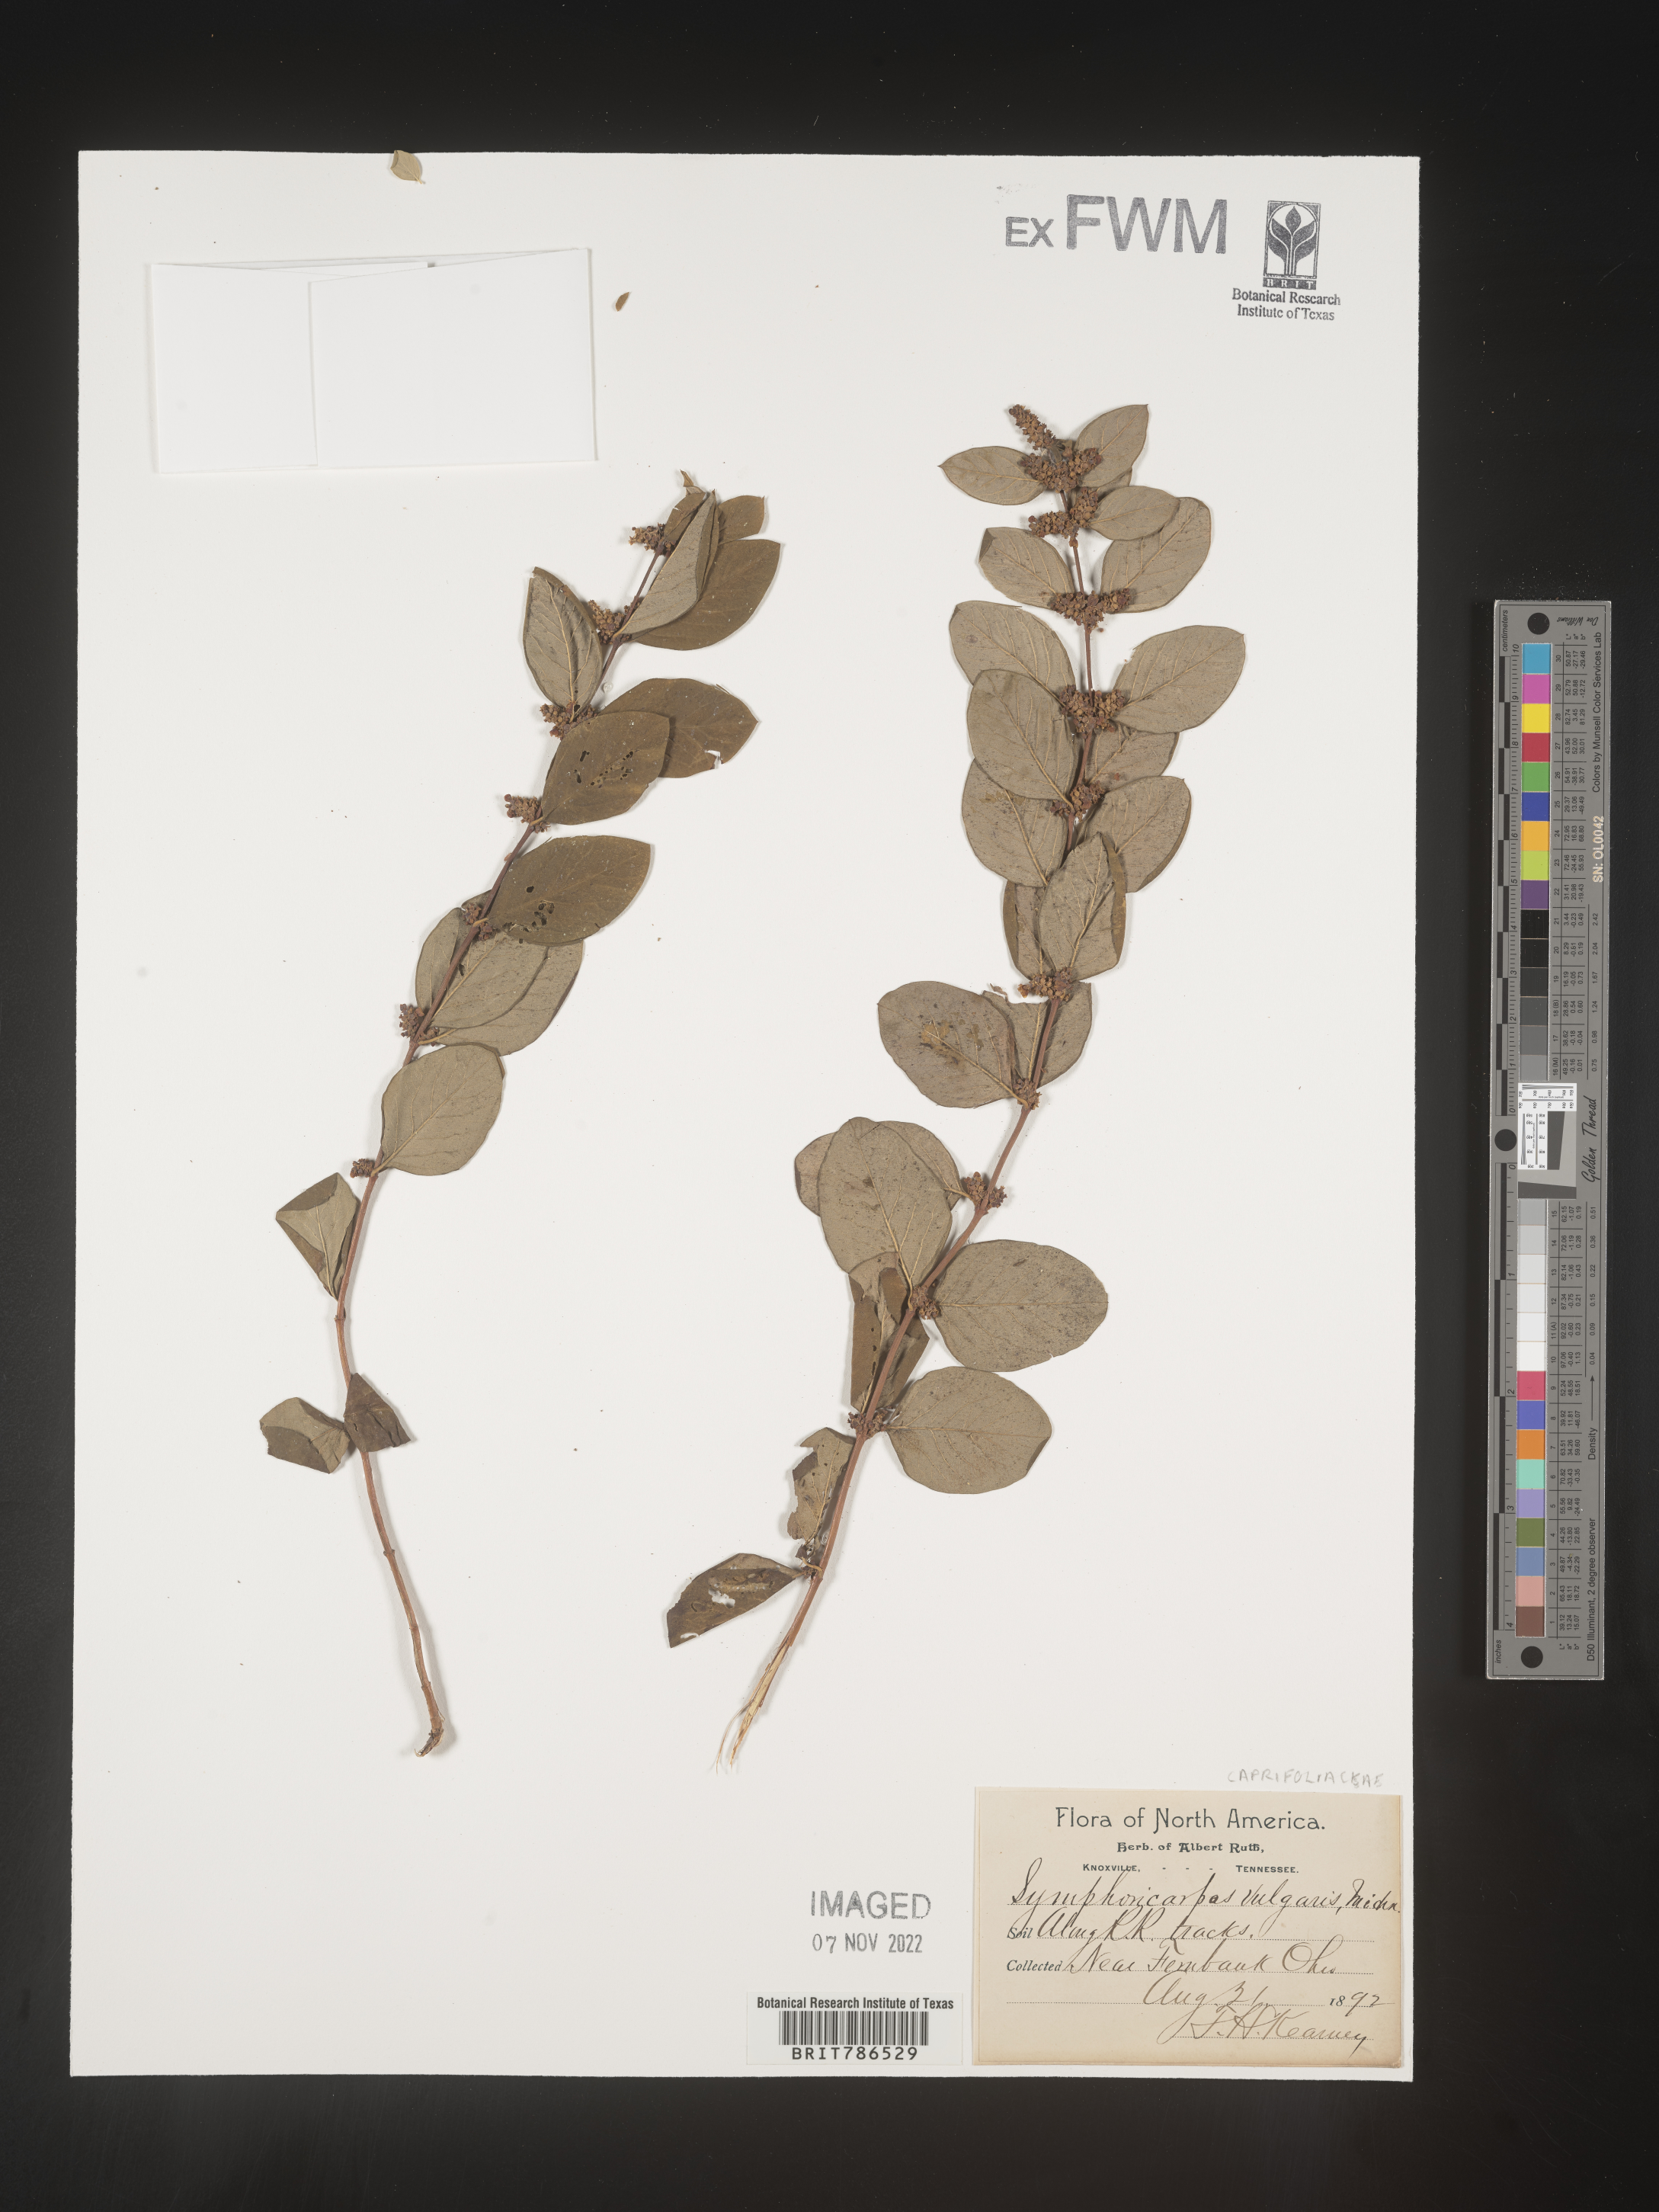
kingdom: Plantae
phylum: Tracheophyta
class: Magnoliopsida
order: Dipsacales
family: Caprifoliaceae
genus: Symphoricarpos
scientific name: Symphoricarpos
